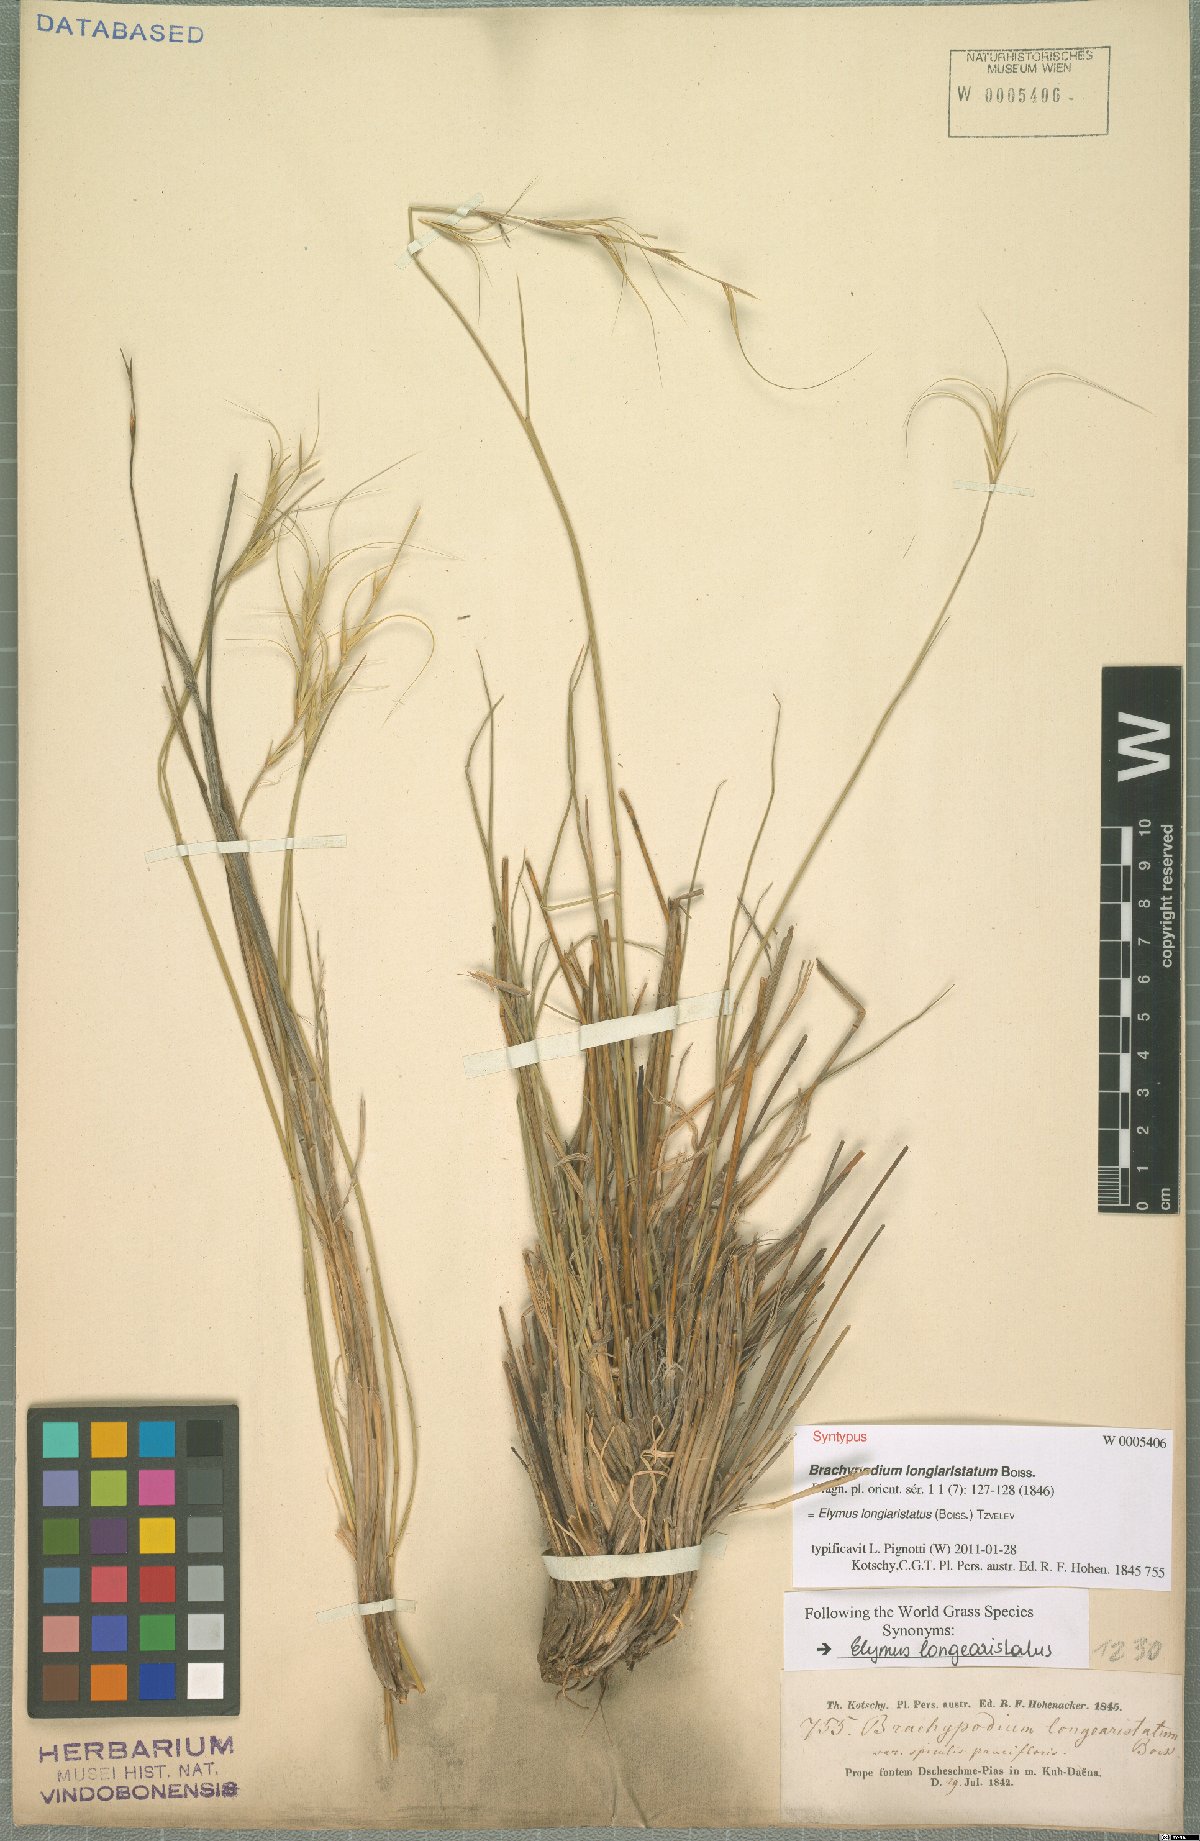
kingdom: Plantae
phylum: Tracheophyta
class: Liliopsida
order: Poales
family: Poaceae
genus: Elymus
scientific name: Elymus longiaristatus
